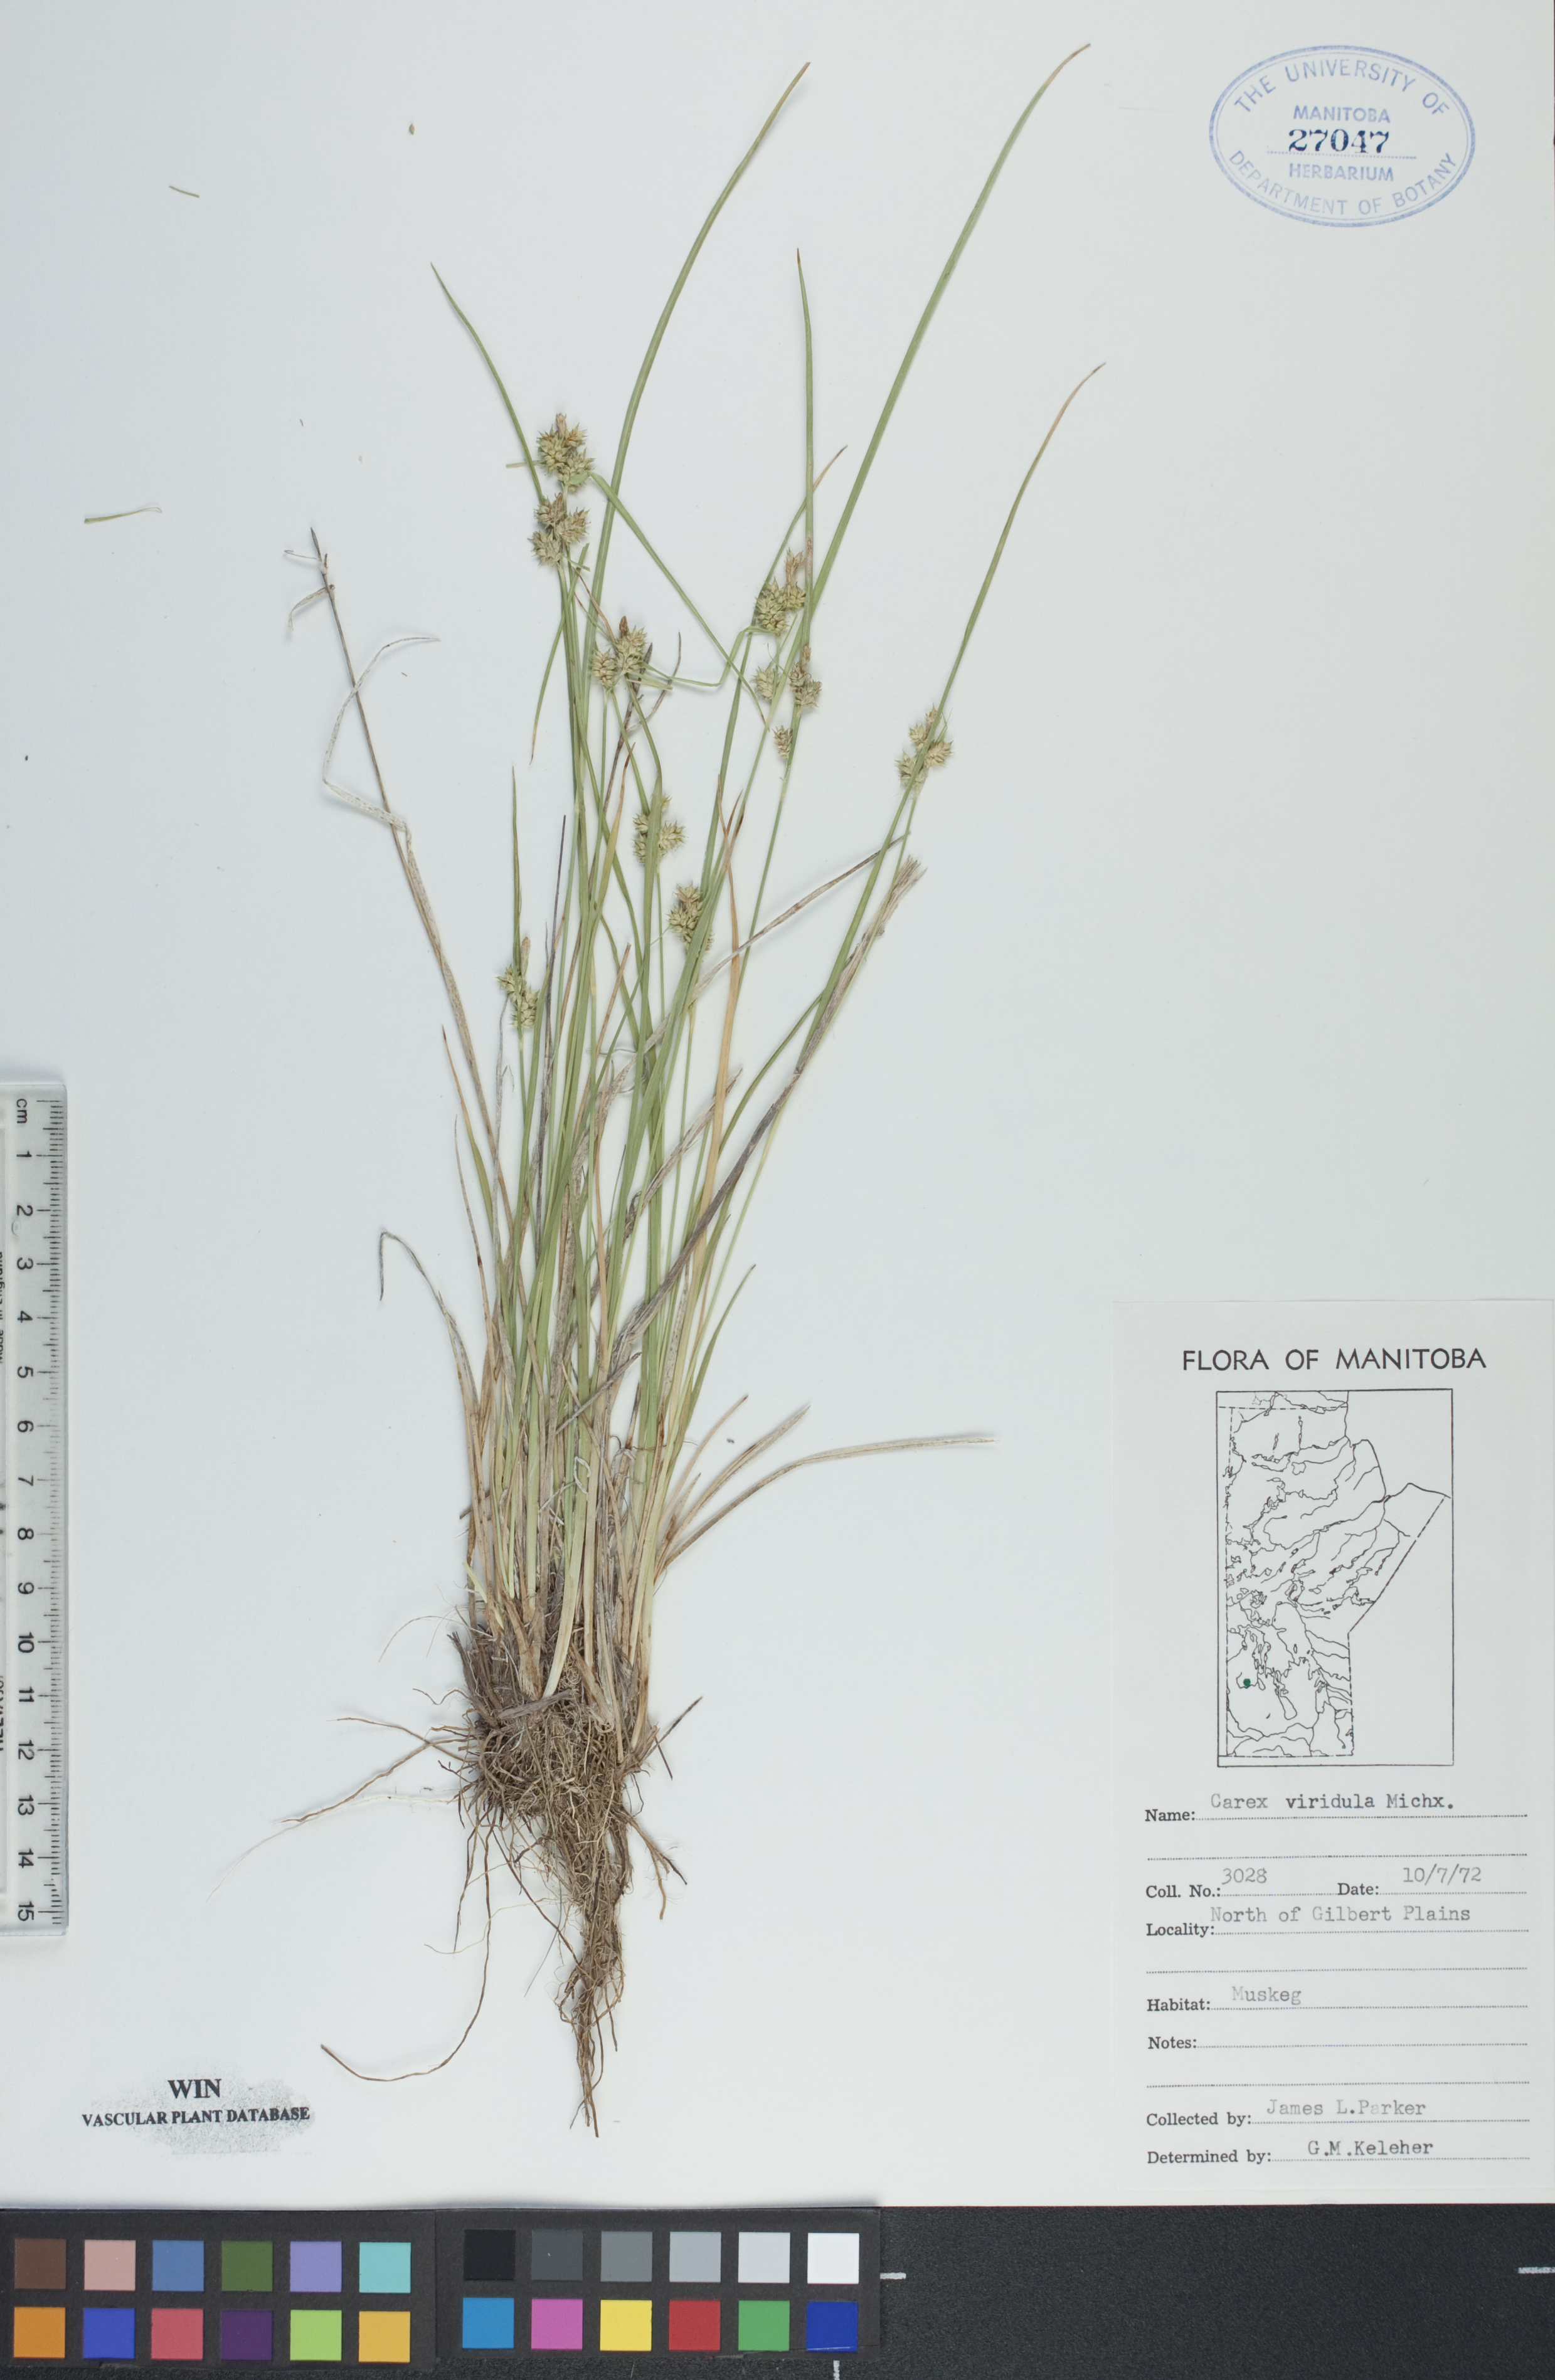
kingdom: Plantae
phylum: Tracheophyta
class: Liliopsida
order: Poales
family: Cyperaceae
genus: Carex
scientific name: Carex oederi
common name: Common & small-fruited yellow-sedge
